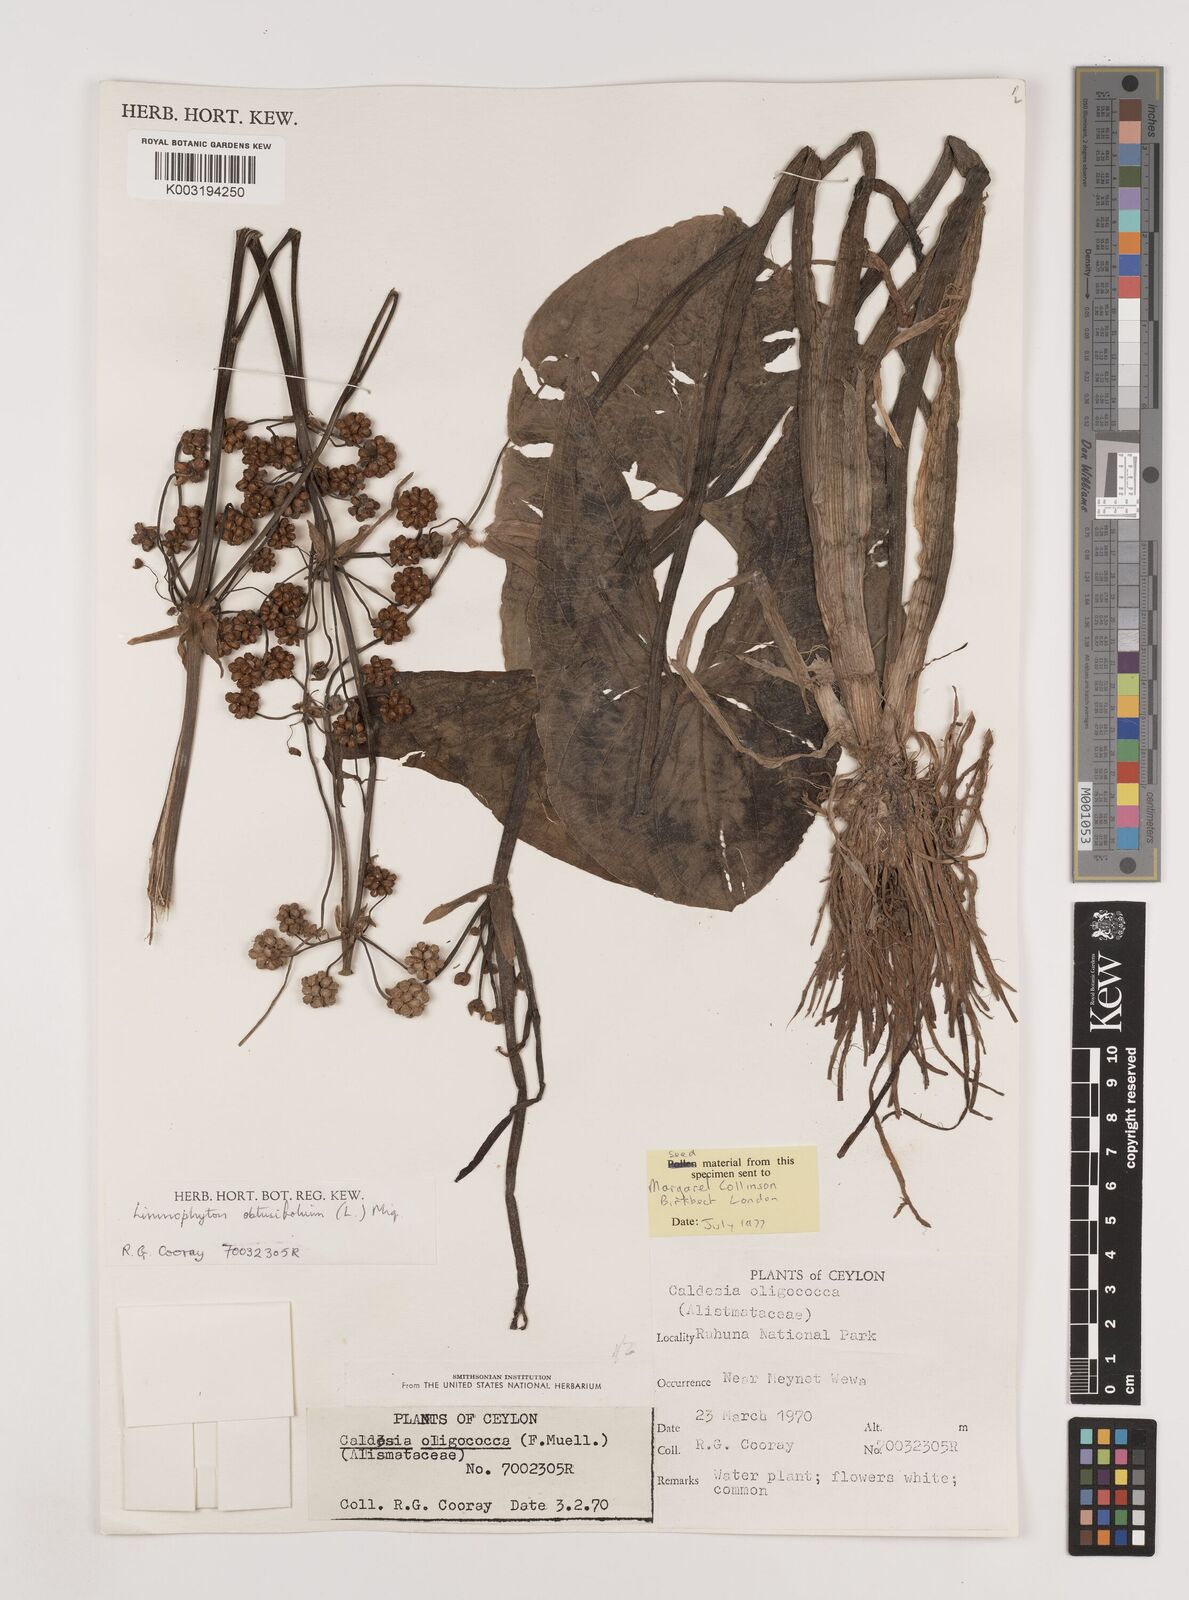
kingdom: Plantae
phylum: Tracheophyta
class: Liliopsida
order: Alismatales
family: Alismataceae
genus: Limnophyton
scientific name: Limnophyton obtusifolium
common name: Arrow head
